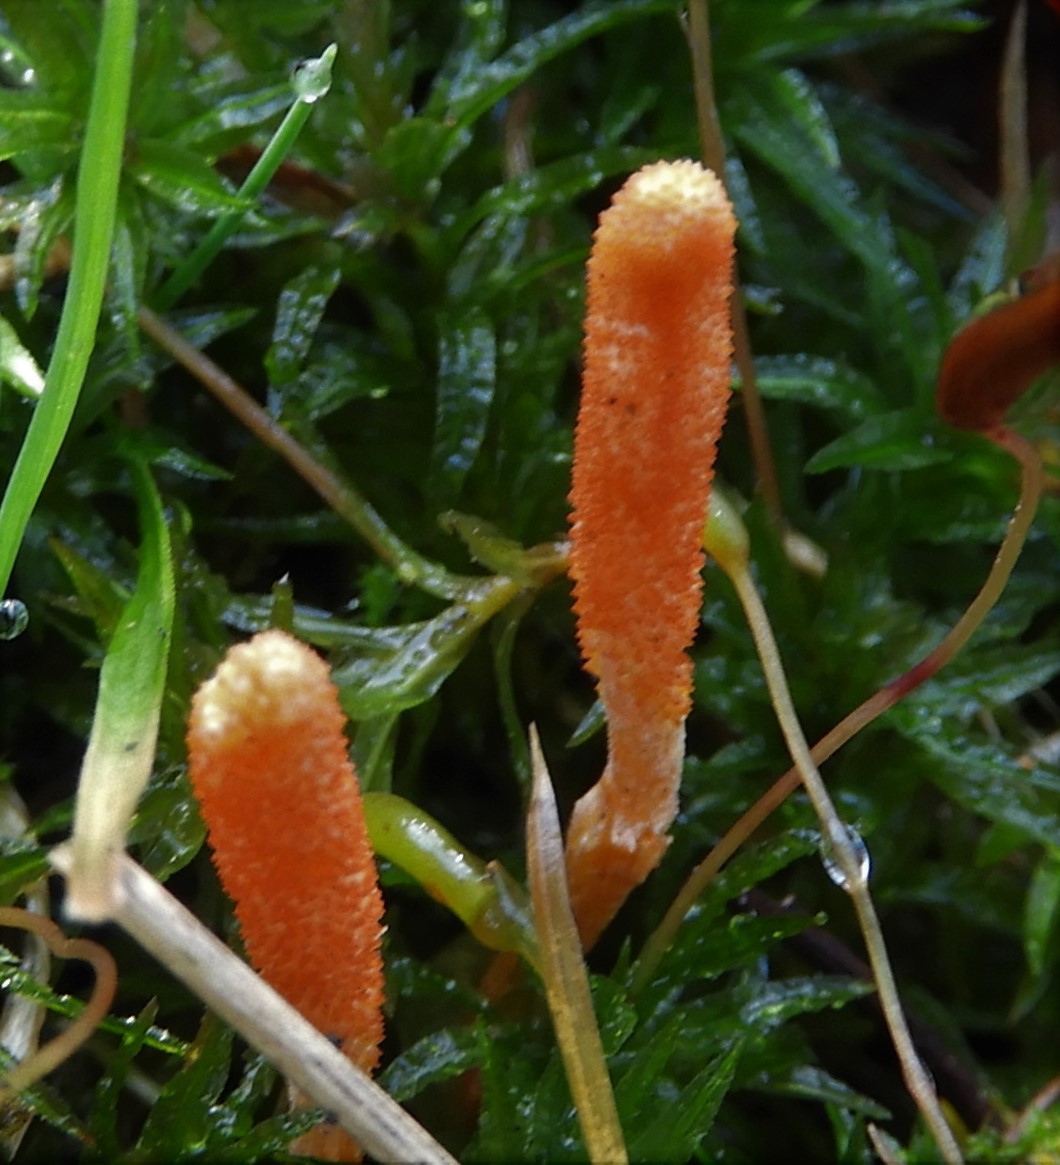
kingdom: Fungi
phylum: Ascomycota
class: Sordariomycetes
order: Hypocreales
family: Cordycipitaceae
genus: Cordyceps
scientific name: Cordyceps militaris
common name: puppe-snyltekølle
